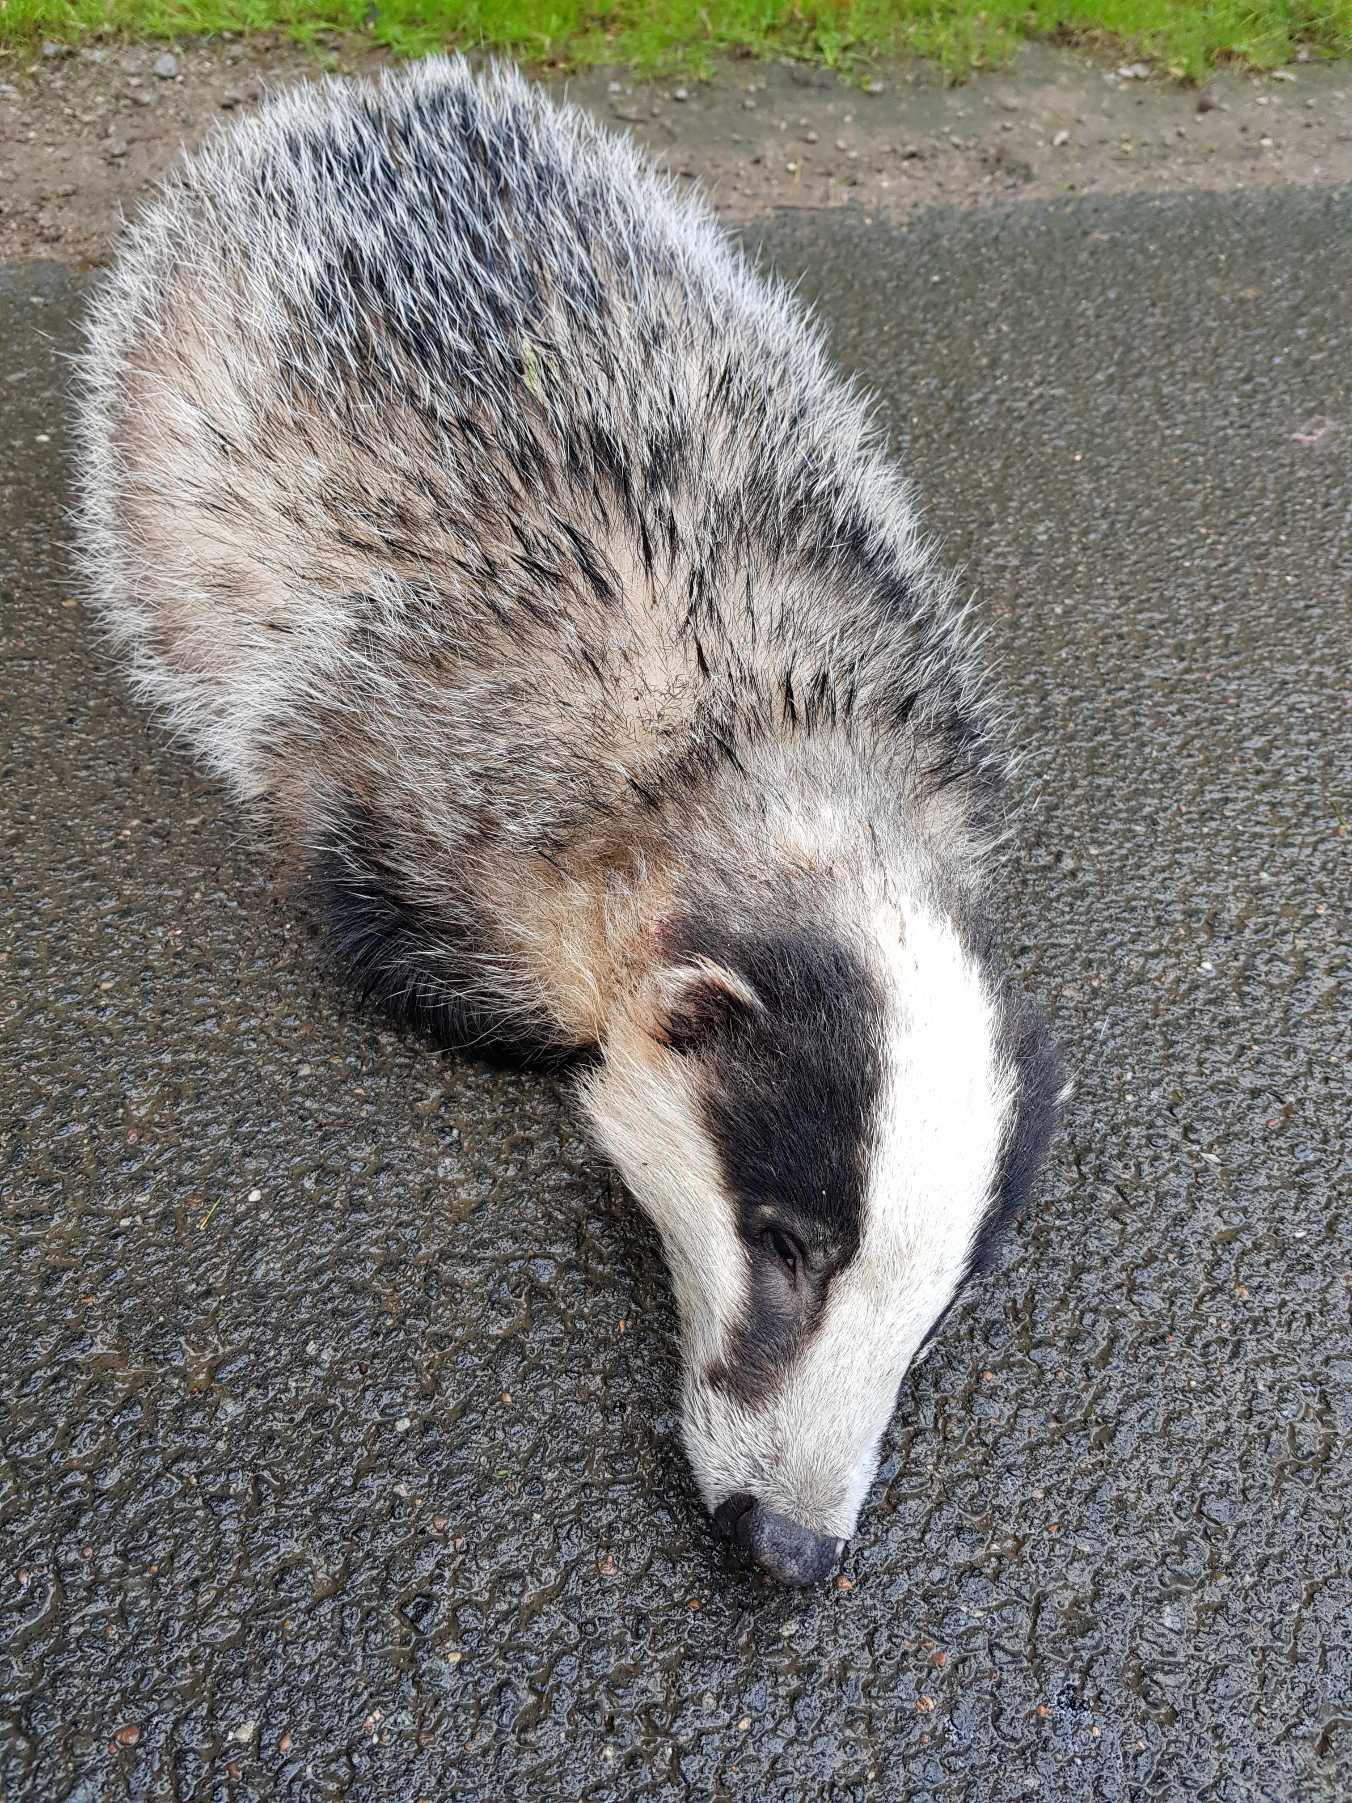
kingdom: Animalia
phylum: Chordata
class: Mammalia
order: Carnivora
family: Mustelidae
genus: Meles
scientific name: Meles meles
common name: Grævling
